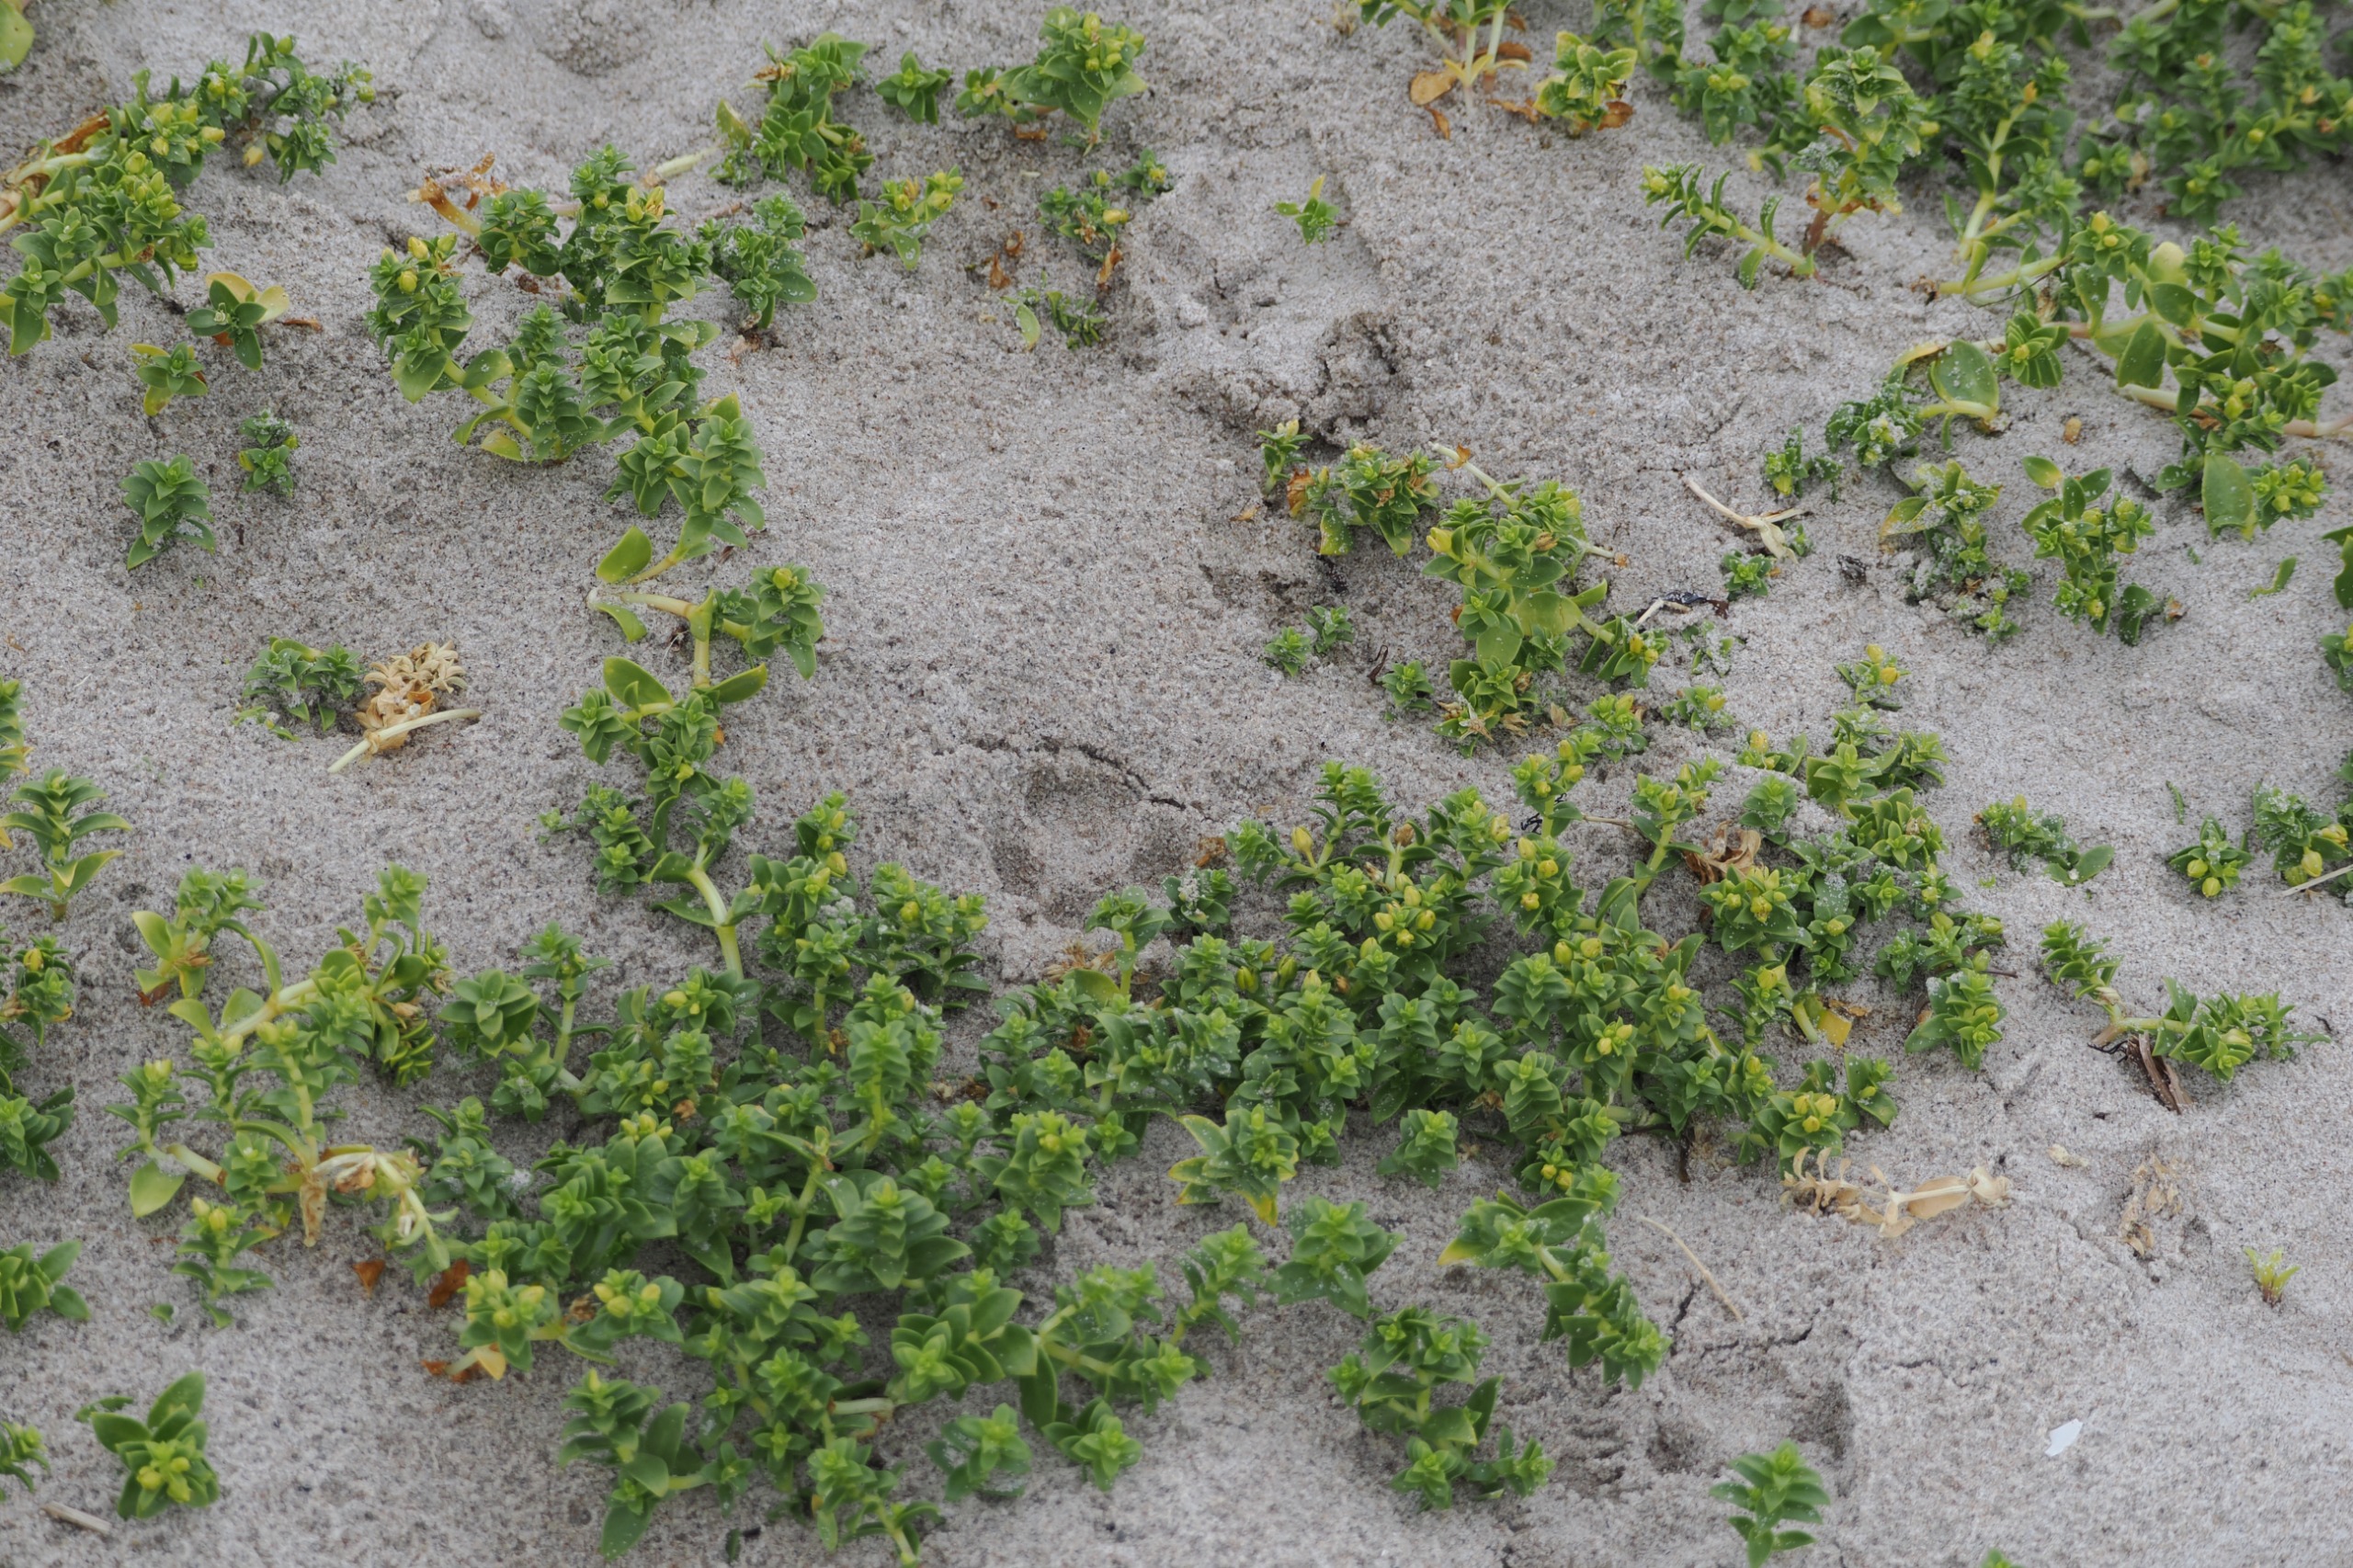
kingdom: Plantae
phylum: Tracheophyta
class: Magnoliopsida
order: Caryophyllales
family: Caryophyllaceae
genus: Honckenya
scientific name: Honckenya peploides
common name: Strandarve
